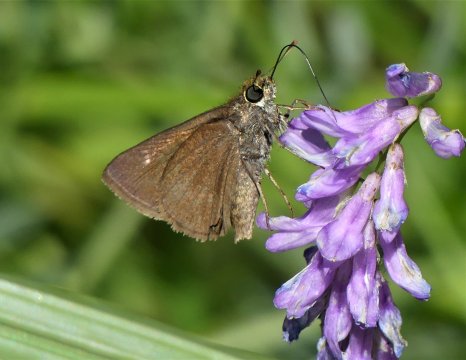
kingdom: Animalia
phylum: Arthropoda
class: Insecta
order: Lepidoptera
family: Hesperiidae
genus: Euphyes
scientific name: Euphyes vestris
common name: Dun Skipper
